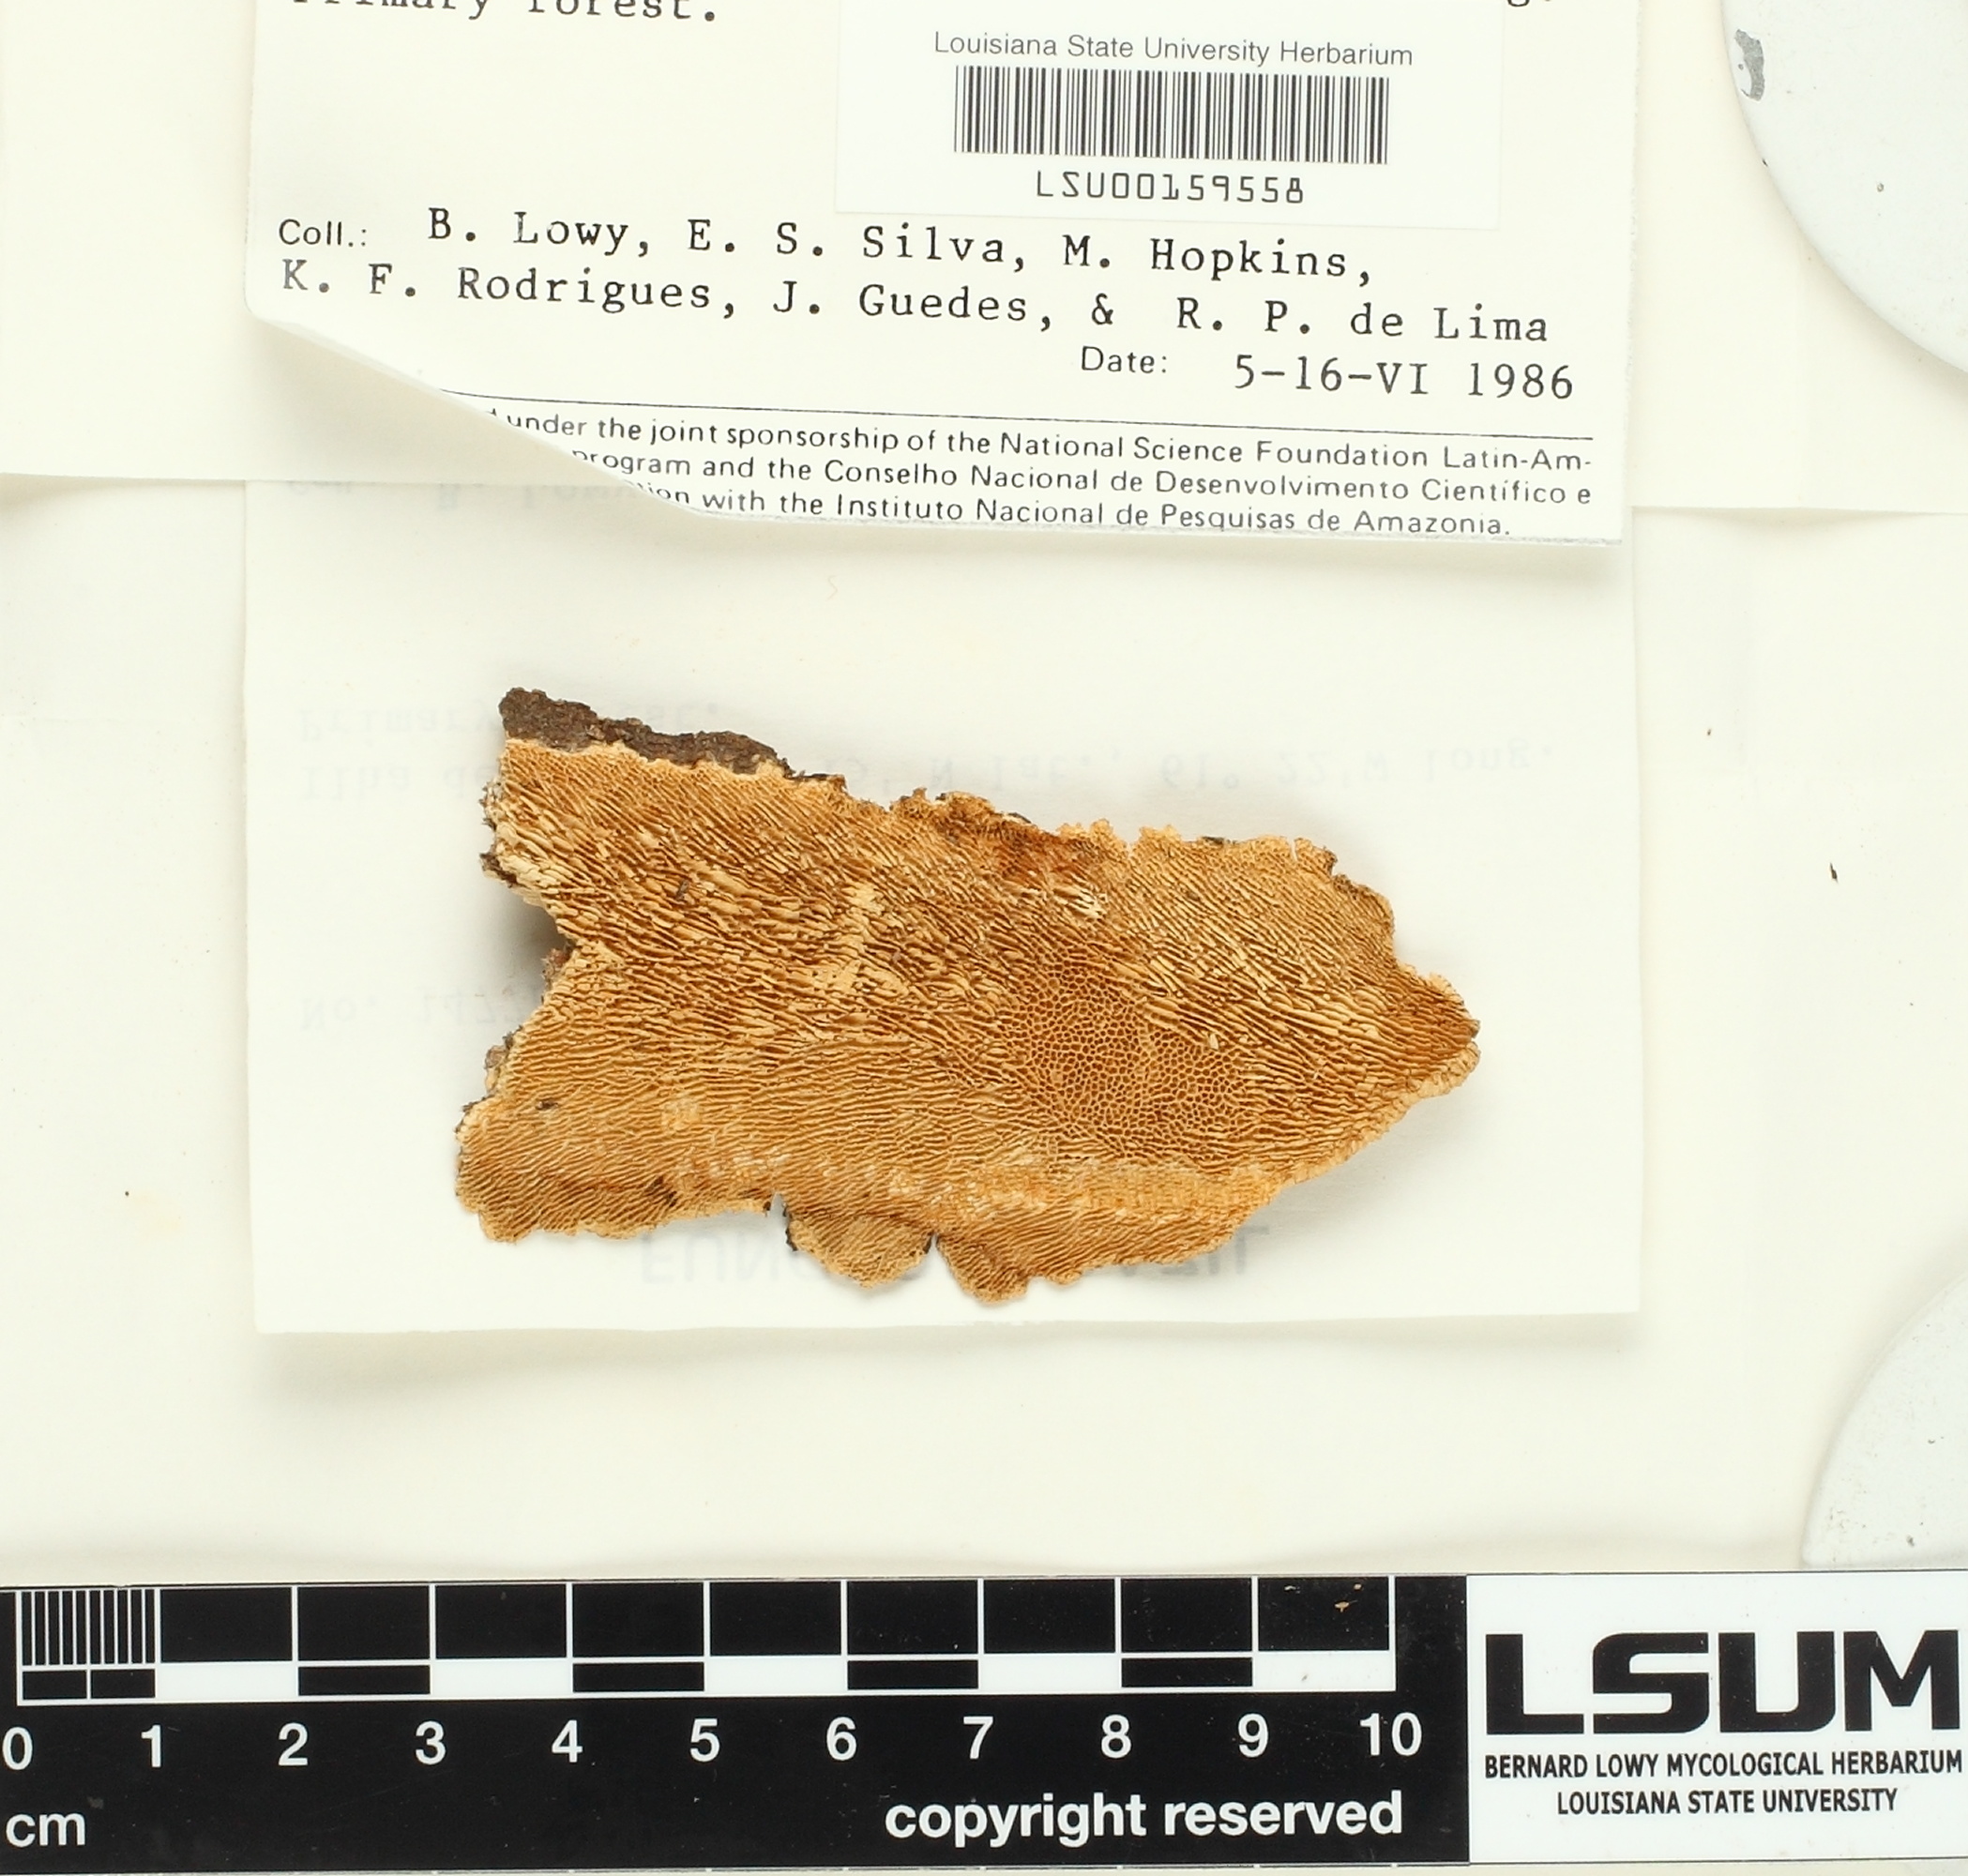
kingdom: Fungi
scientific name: Fungi
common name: Fungi
